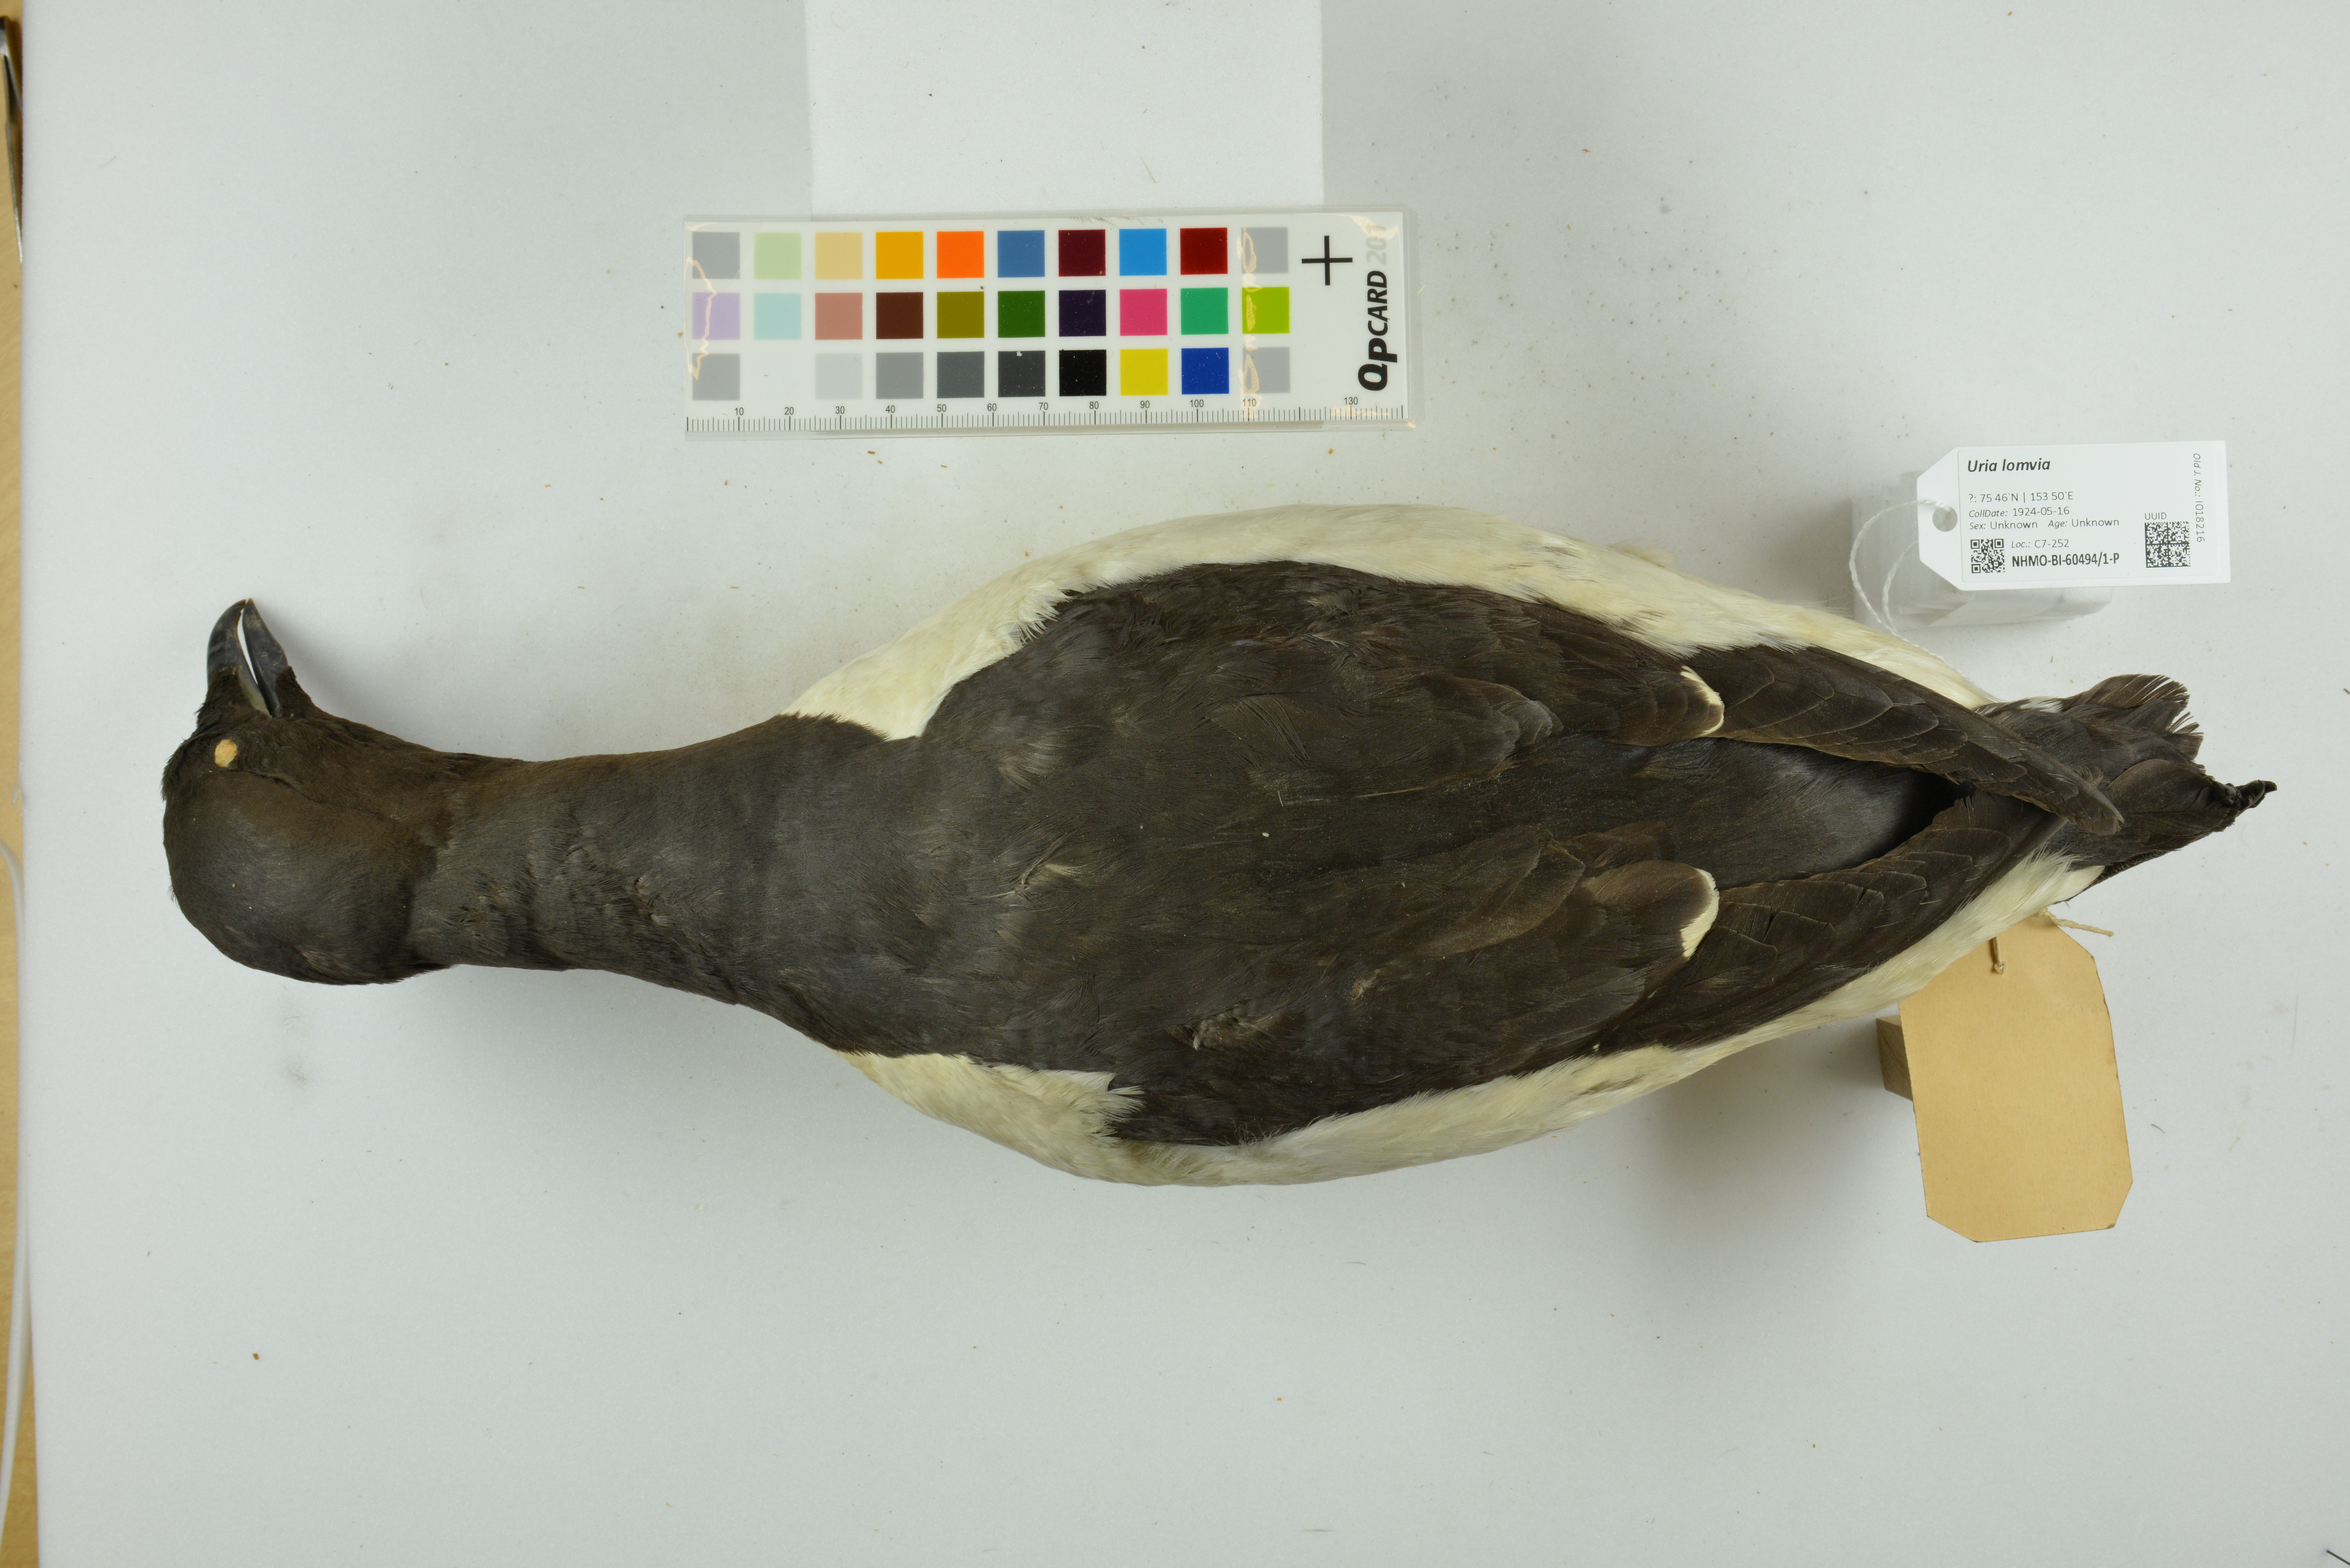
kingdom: Animalia
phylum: Chordata
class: Aves
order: Charadriiformes
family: Alcidae
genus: Uria
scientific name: Uria lomvia
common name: Thick-billed murre
